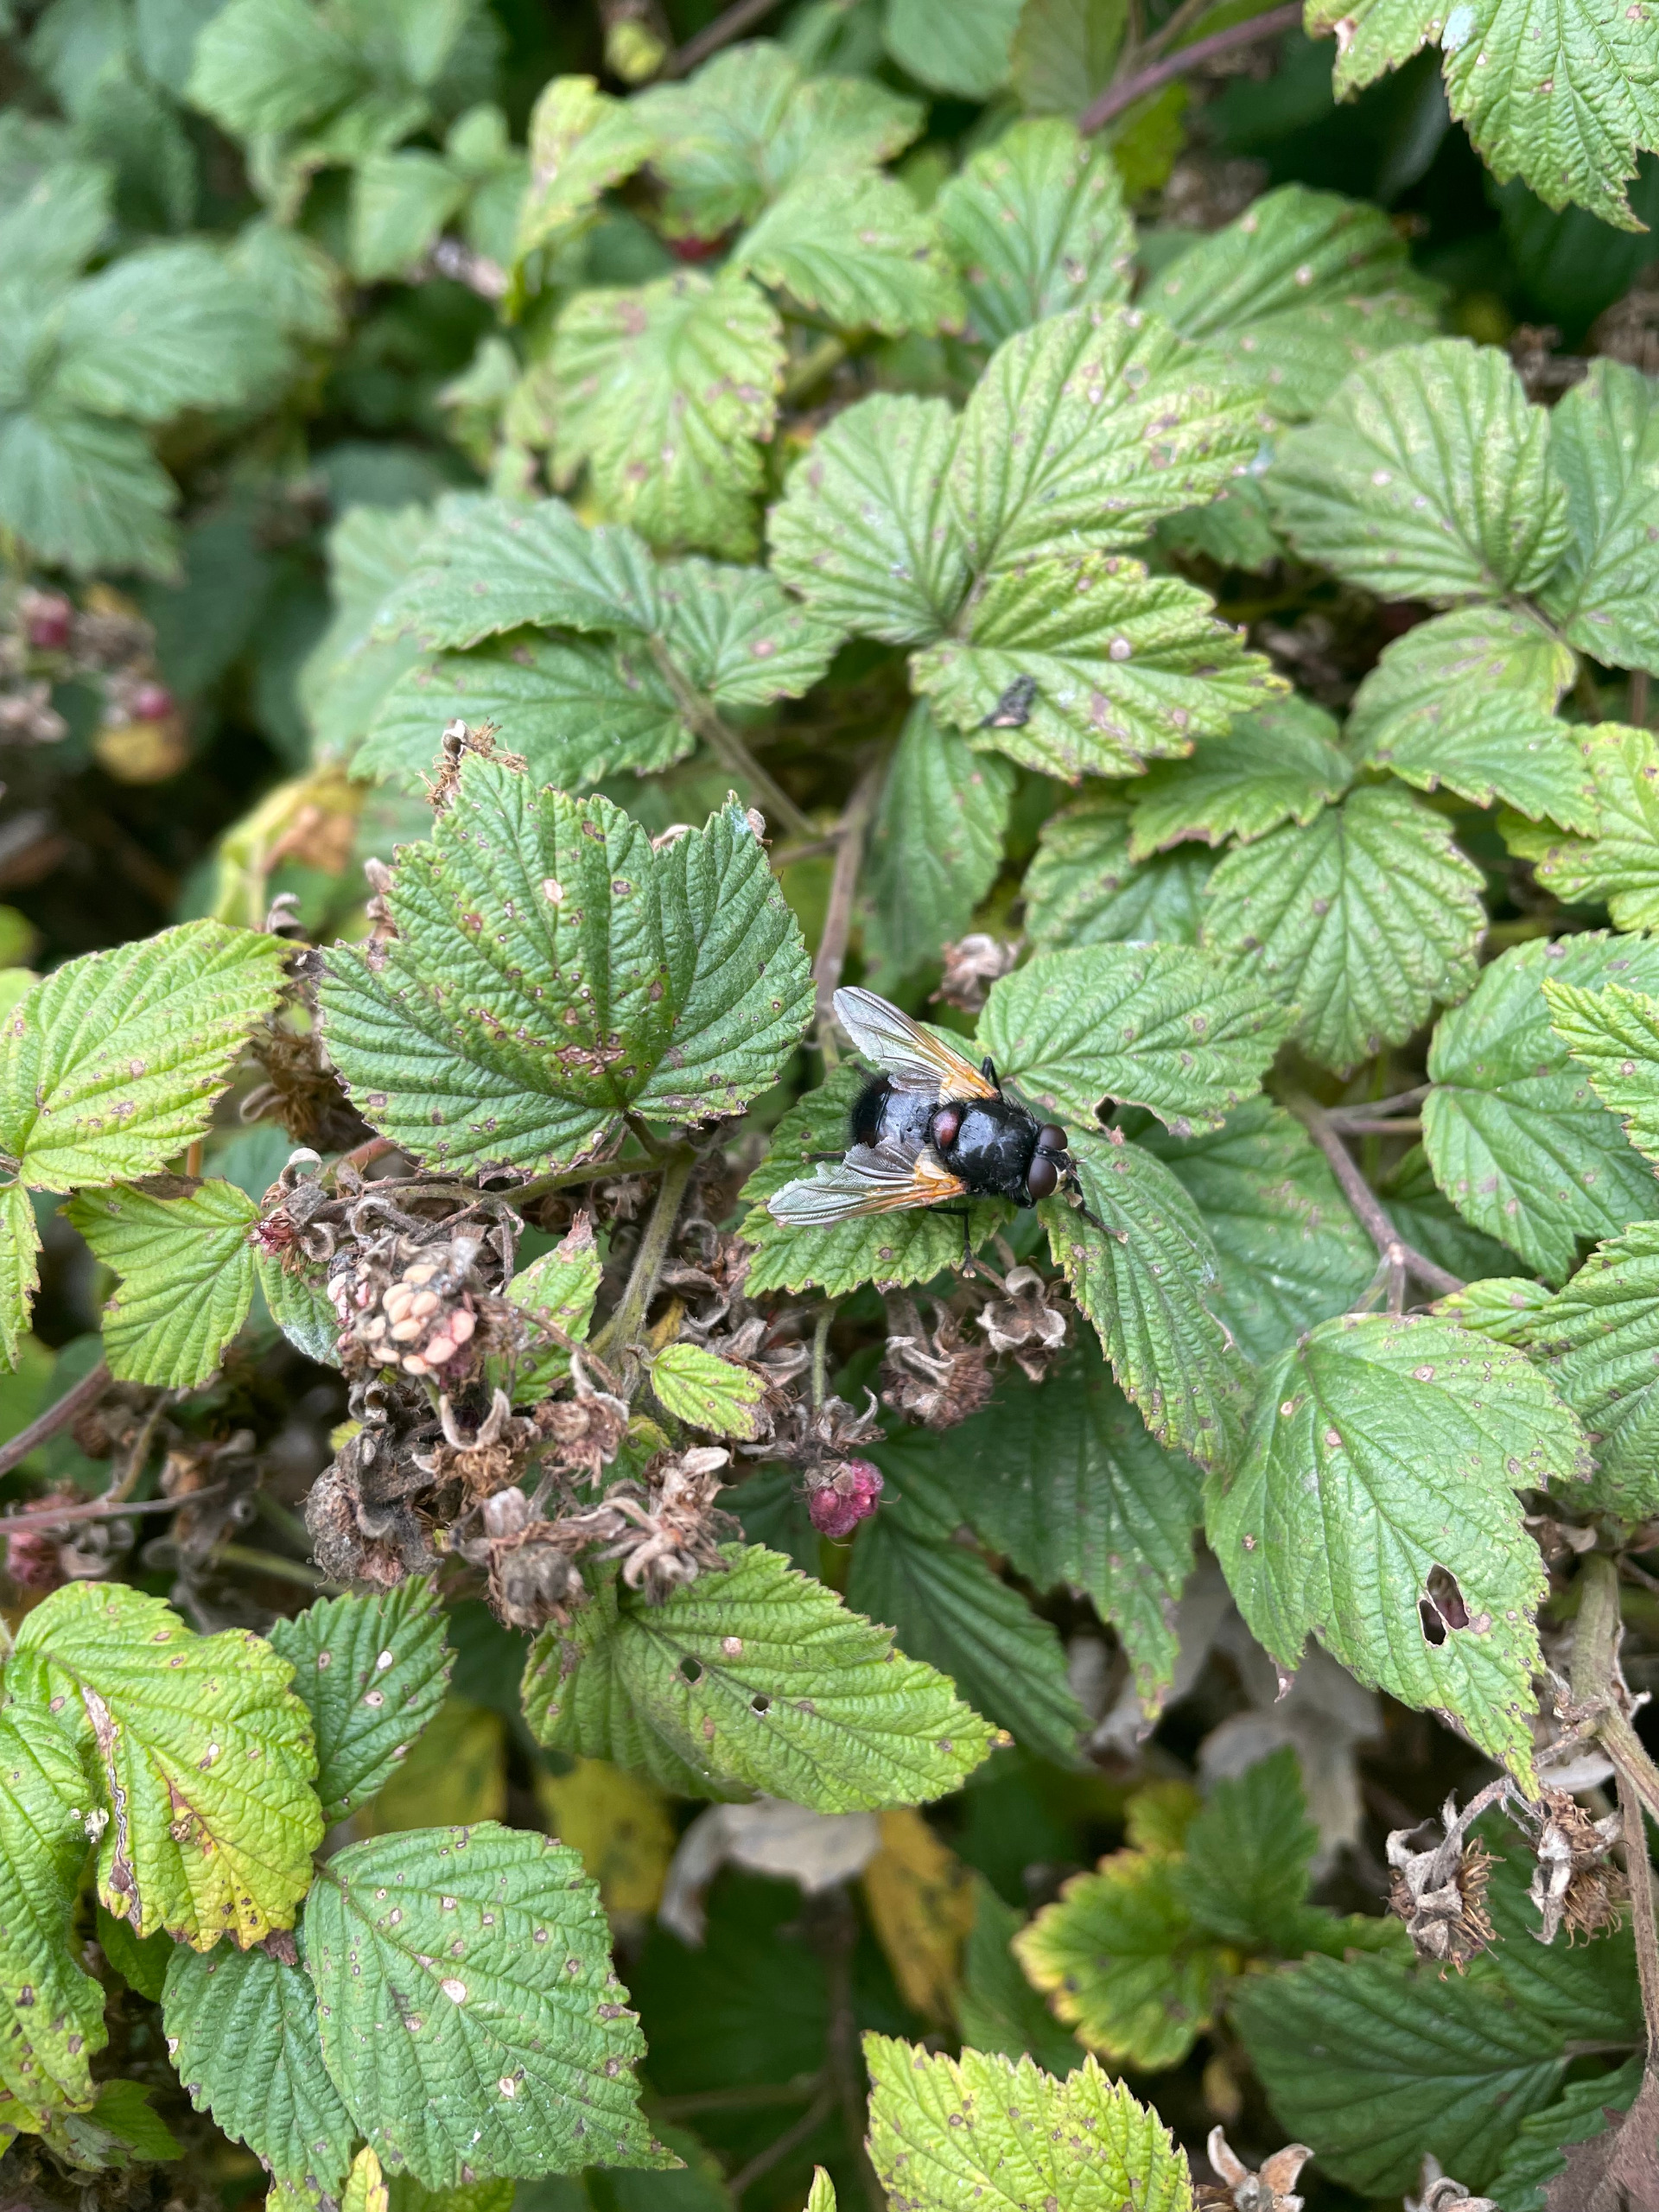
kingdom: Animalia
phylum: Arthropoda
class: Insecta
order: Diptera
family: Muscidae
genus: Mesembrina
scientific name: Mesembrina meridiana
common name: Gulvinget flue
